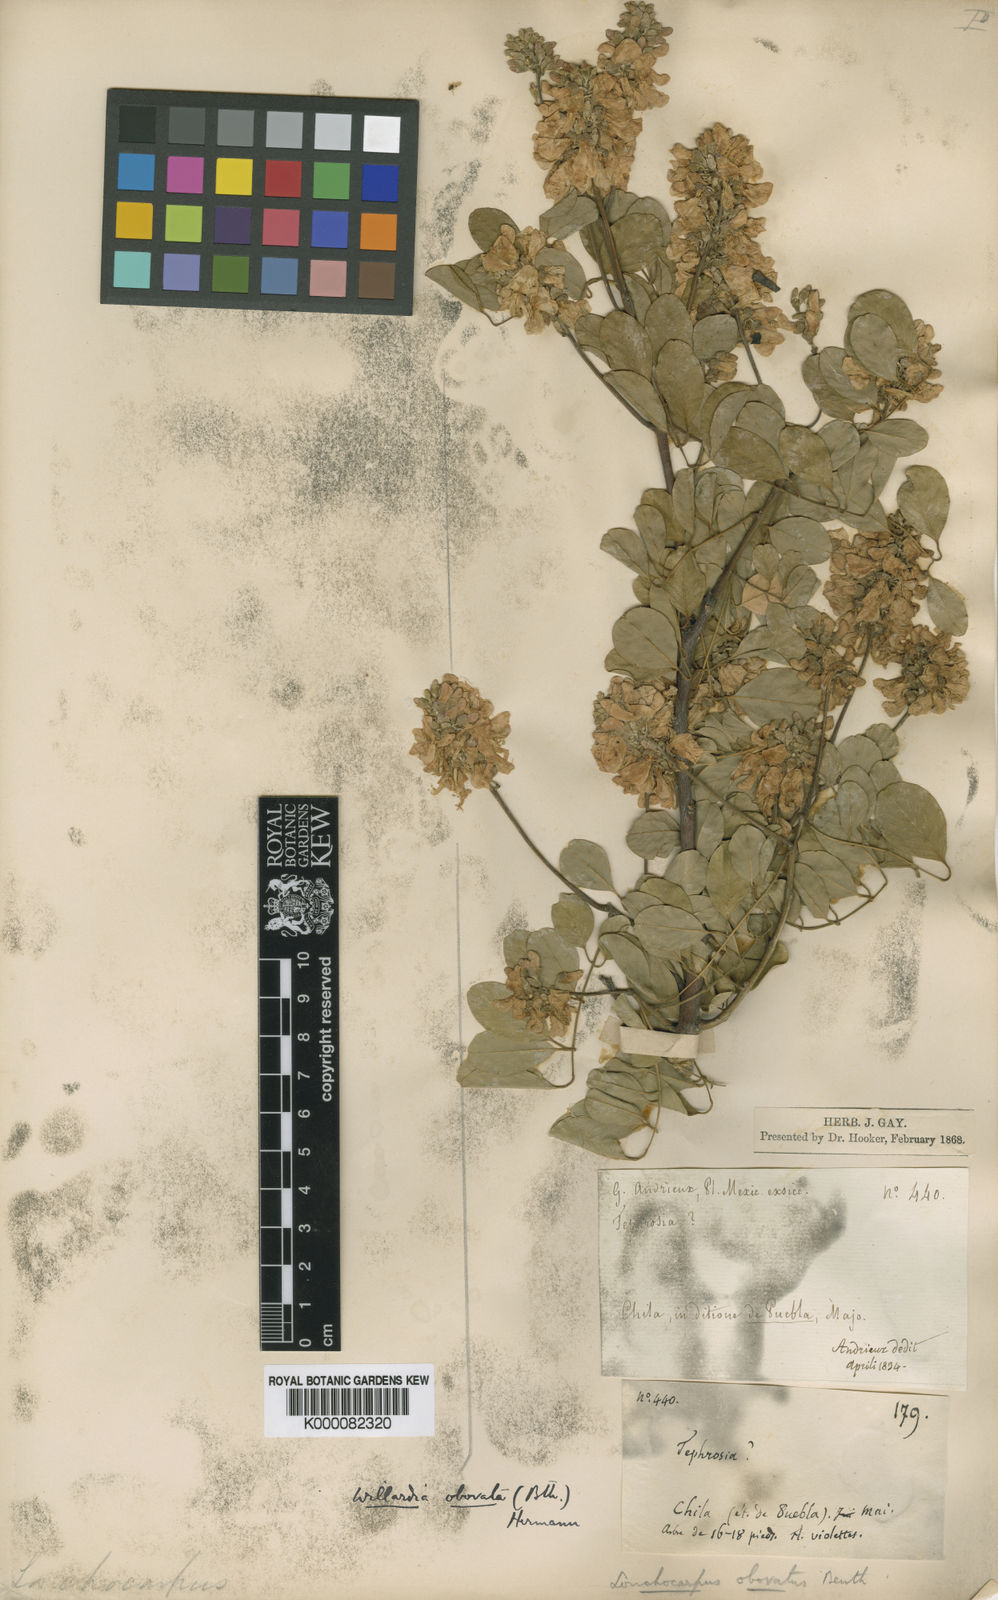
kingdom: Plantae
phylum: Tracheophyta
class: Magnoliopsida
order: Fabales
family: Fabaceae
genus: Lonchocarpus
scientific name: Lonchocarpus obovatus
